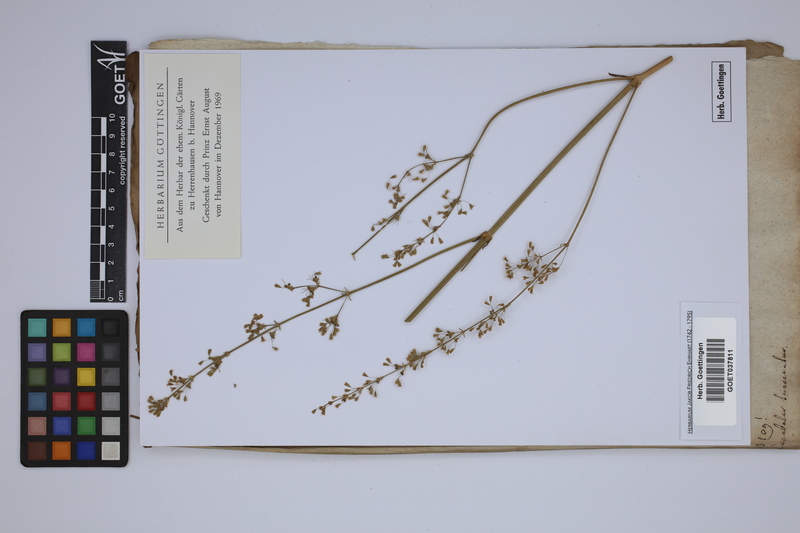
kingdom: Animalia
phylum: Cnidaria
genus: Cucubalus
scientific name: Cucubalus
